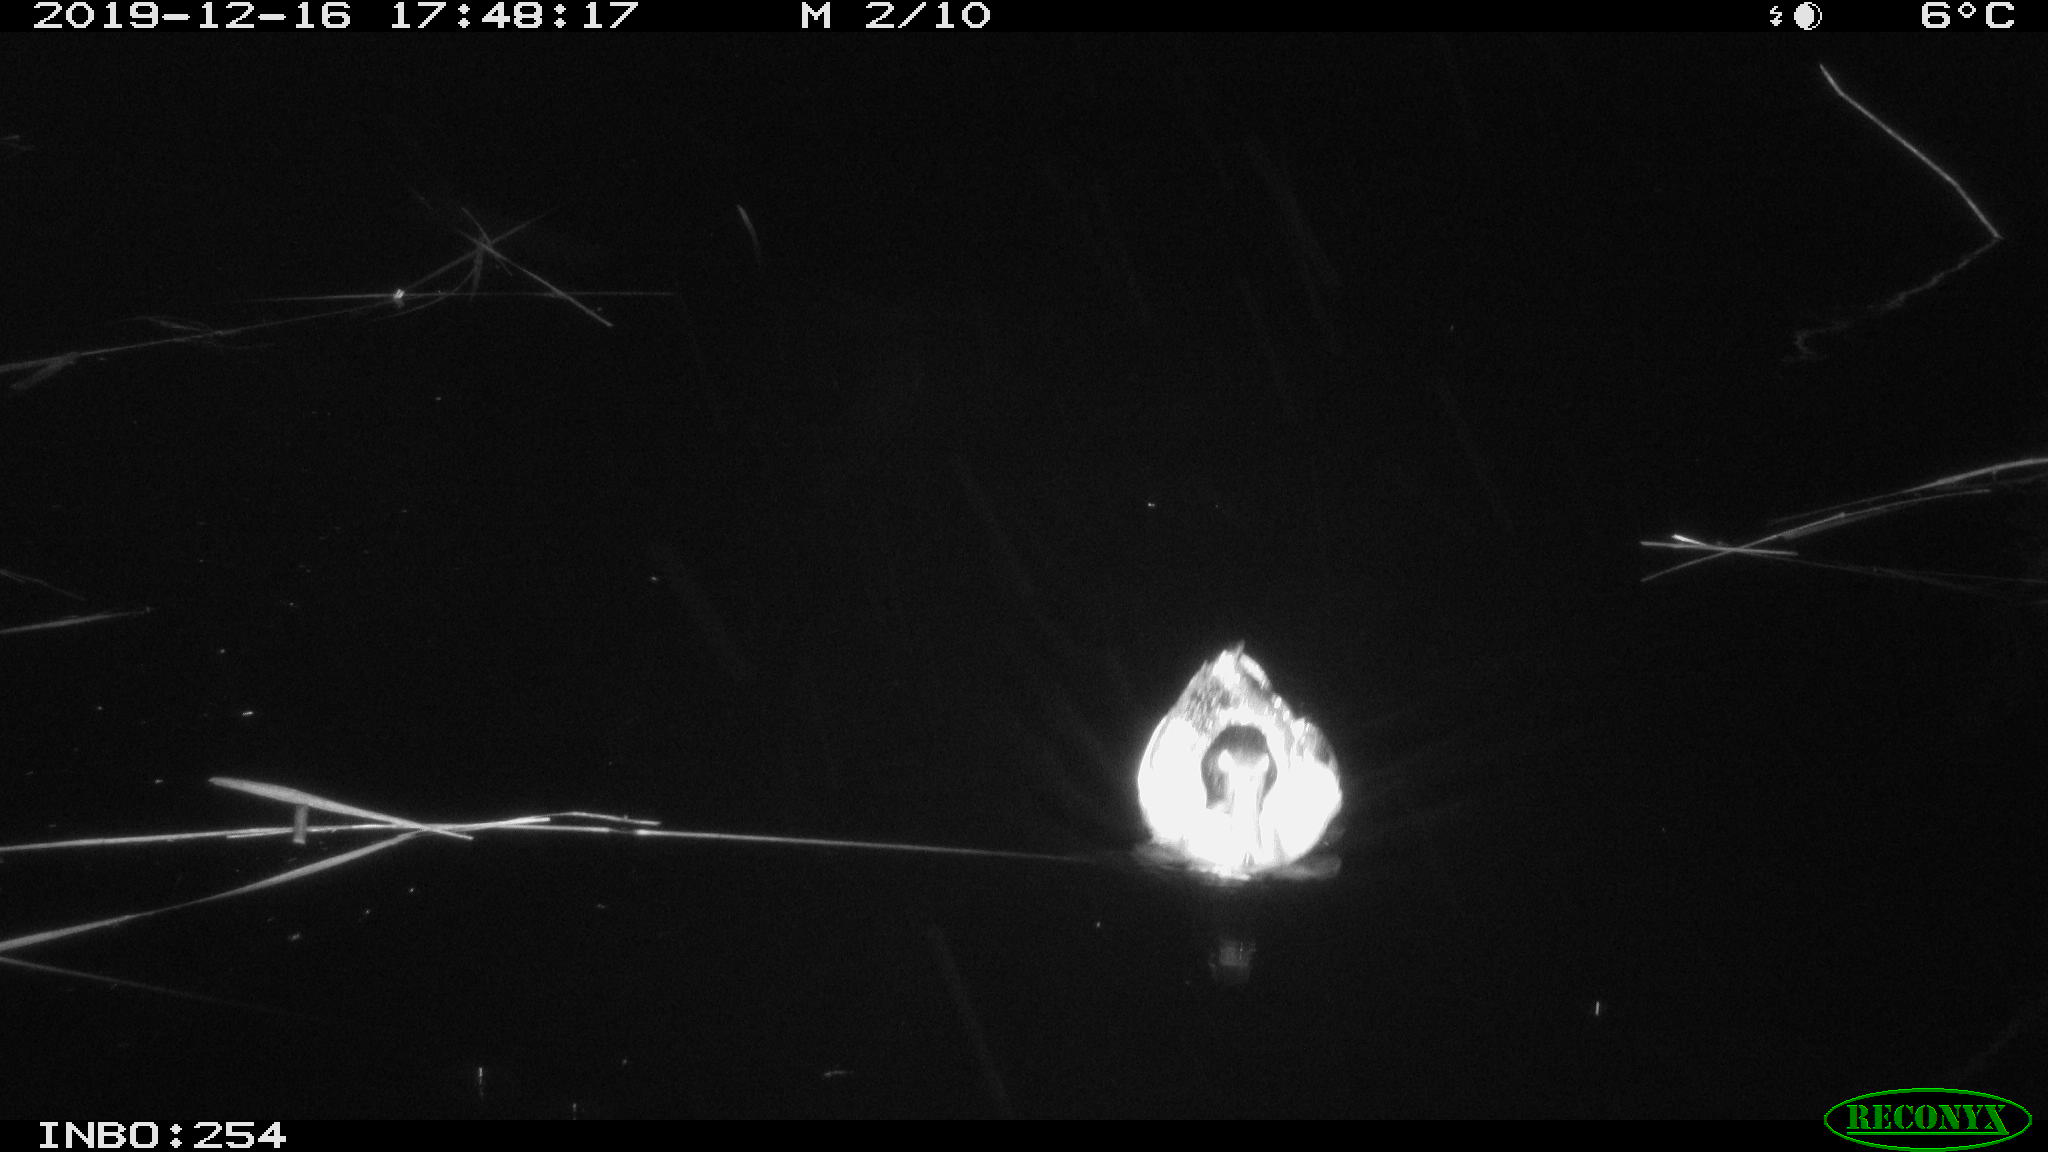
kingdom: Animalia
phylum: Chordata
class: Aves
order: Anseriformes
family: Anatidae
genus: Anas
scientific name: Anas platyrhynchos
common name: Mallard
